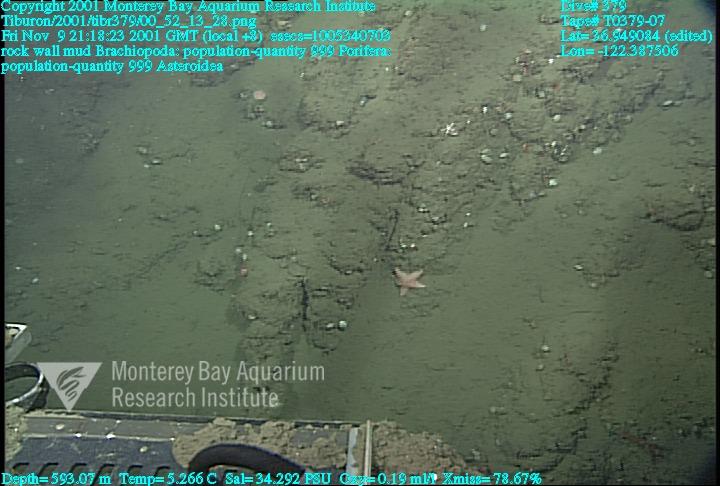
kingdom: Animalia
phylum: Porifera
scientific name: Porifera
